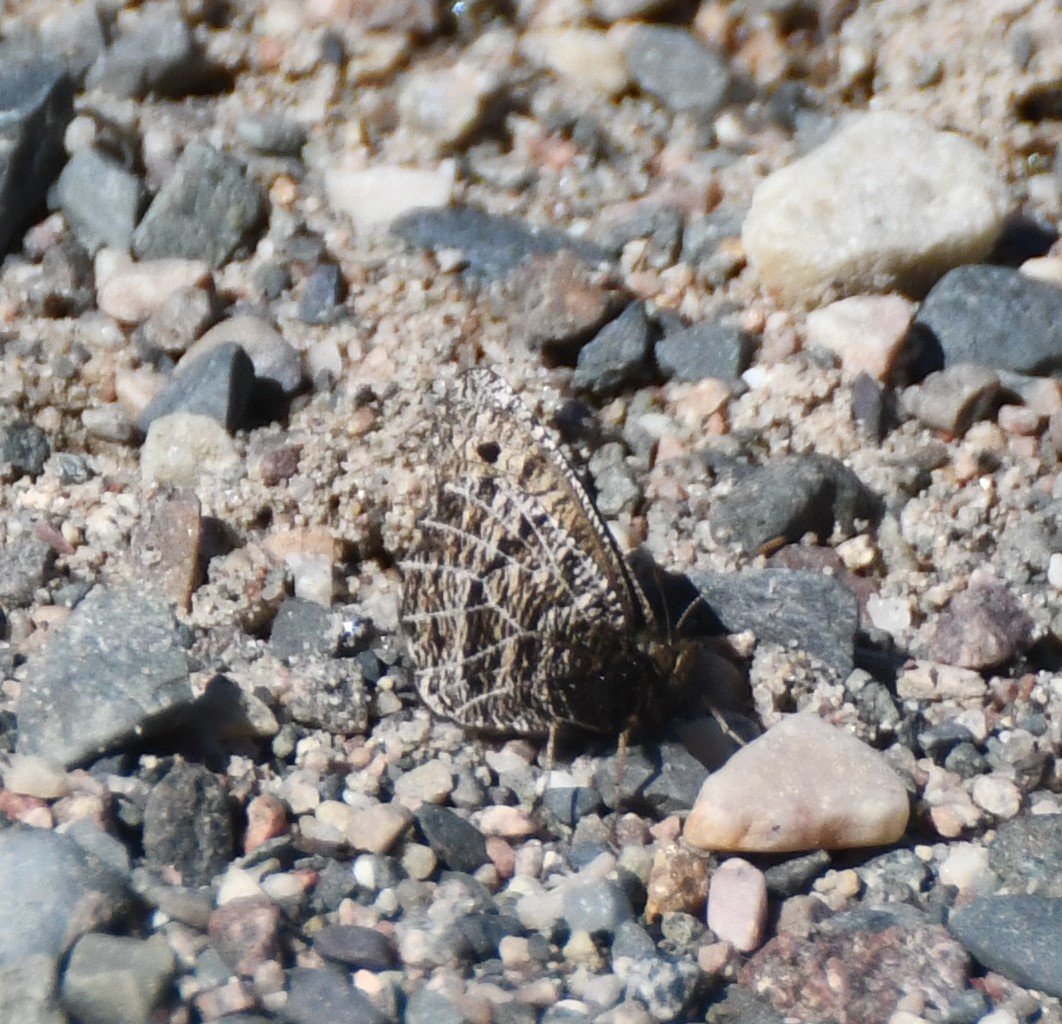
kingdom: Animalia
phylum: Arthropoda
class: Insecta
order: Lepidoptera
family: Nymphalidae
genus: Oeneis
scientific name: Oeneis chryxus
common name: Chryxus Arctic
